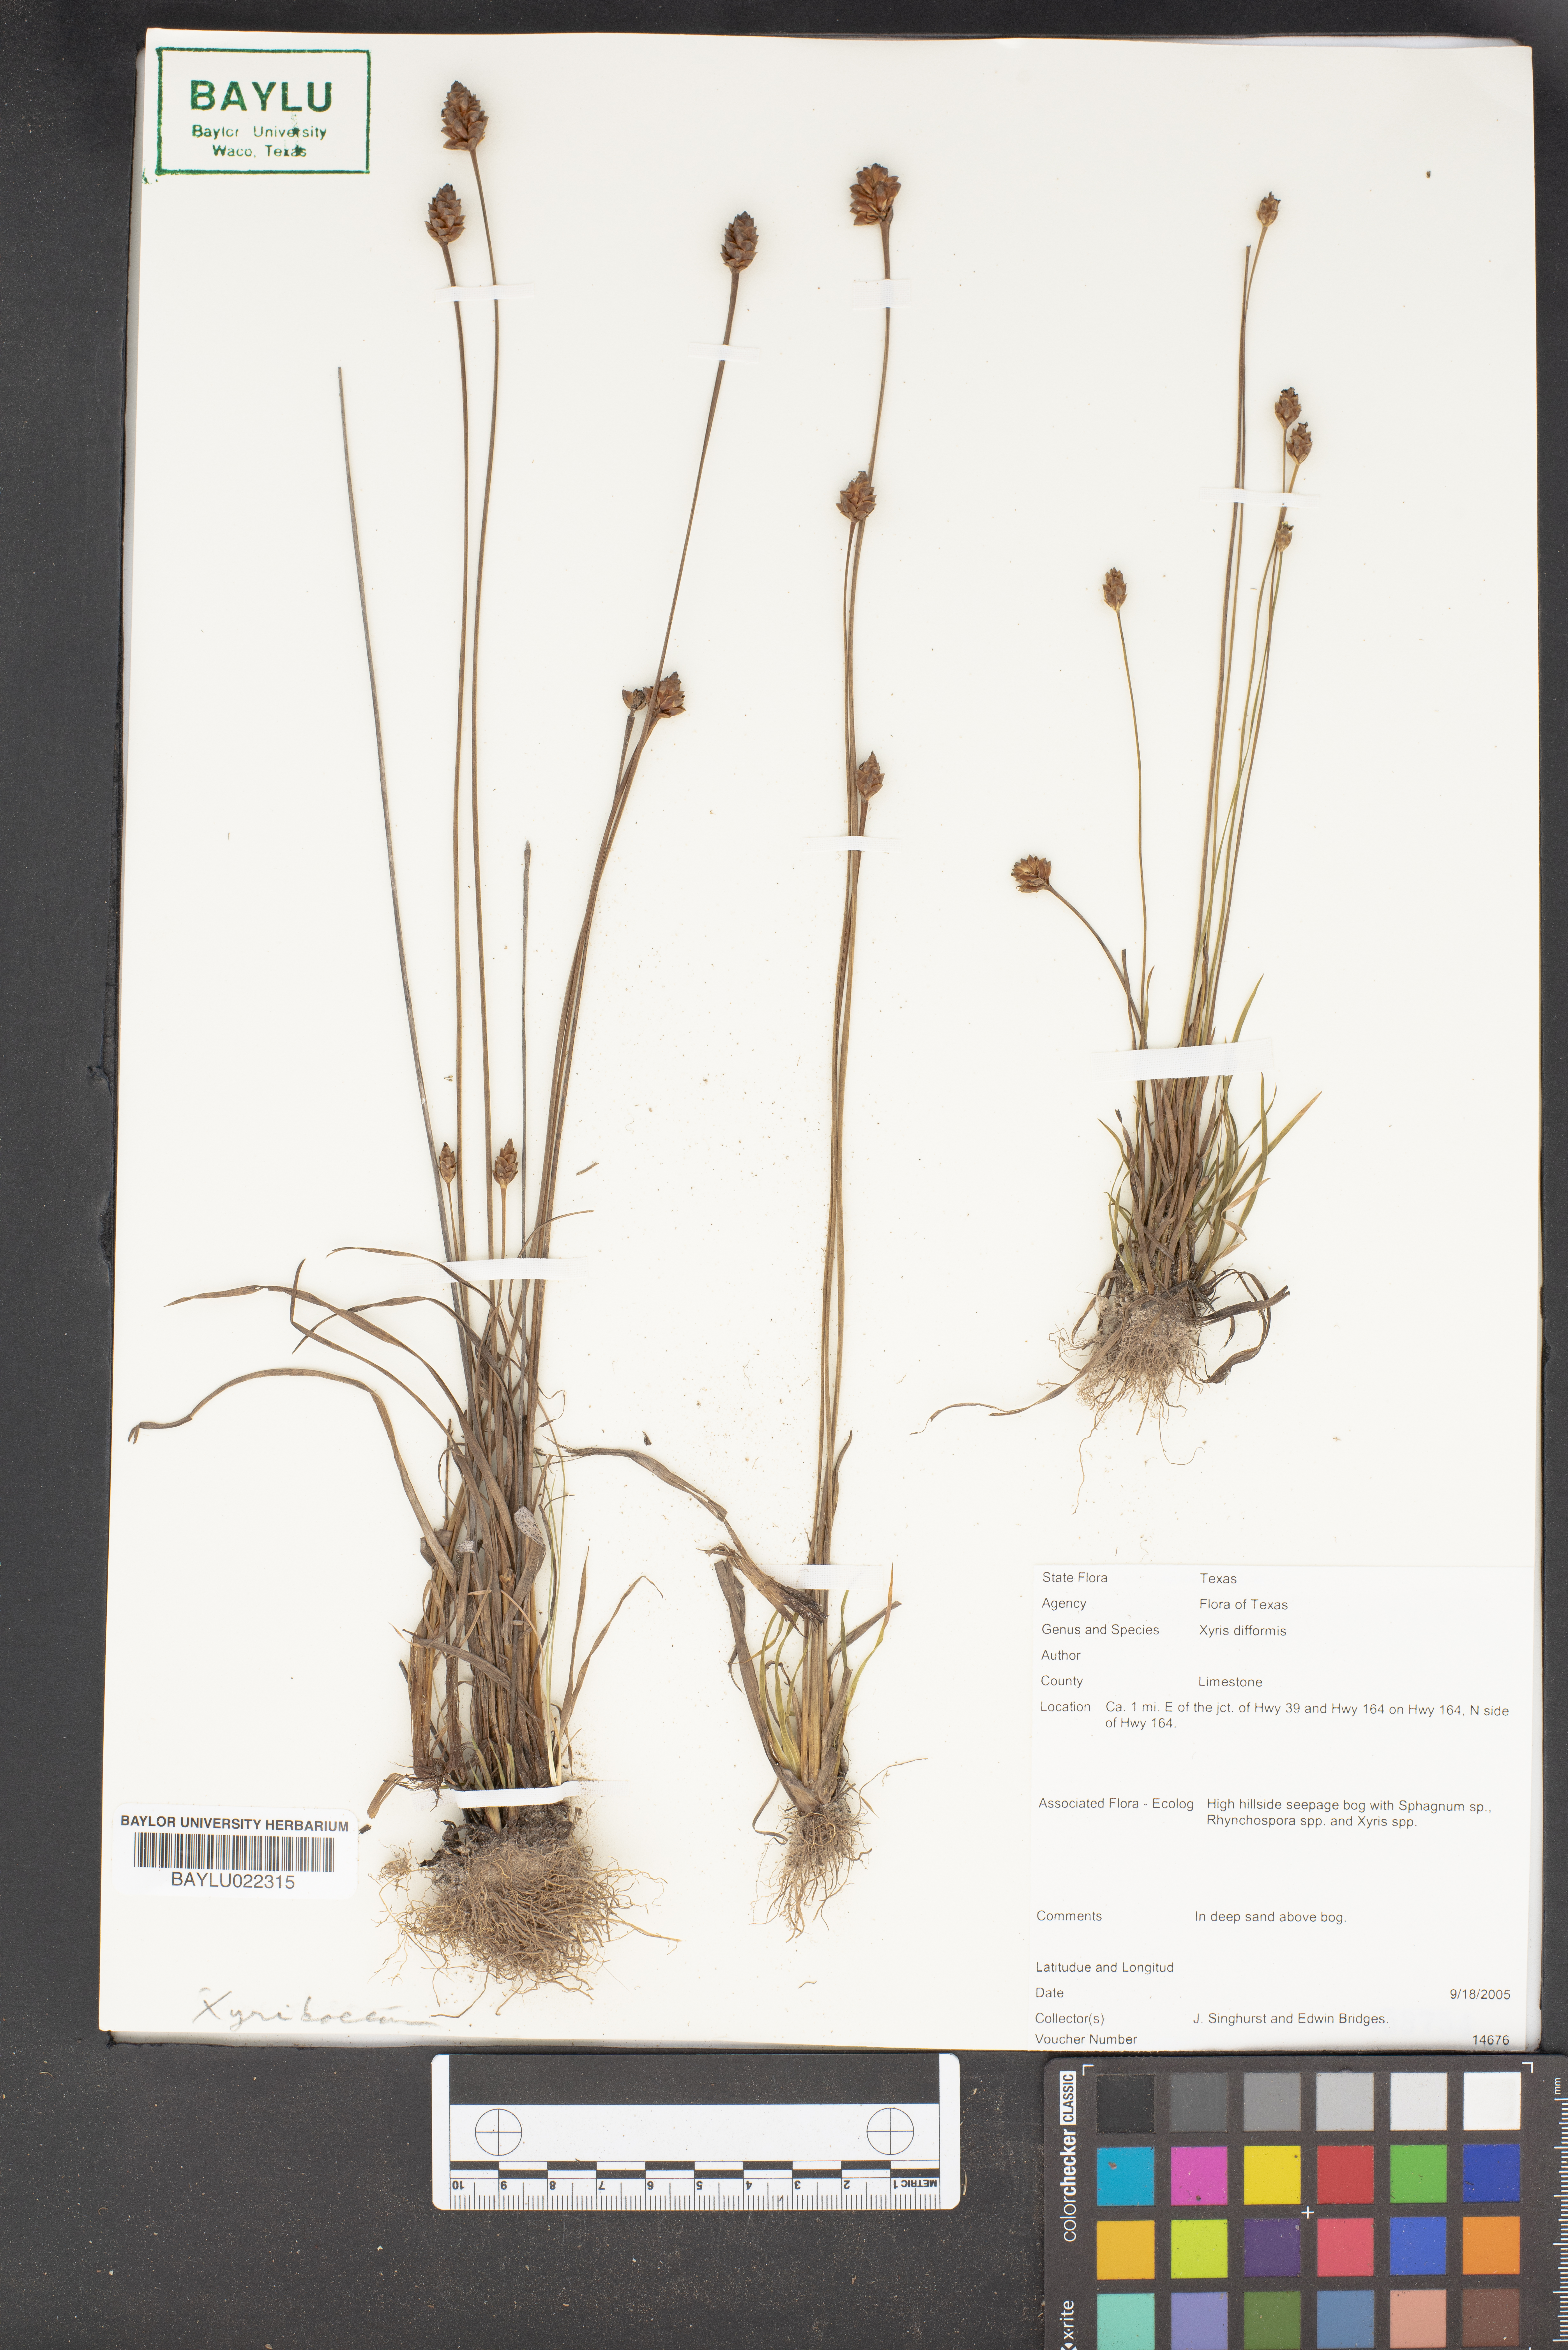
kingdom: Plantae
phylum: Tracheophyta
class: Liliopsida
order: Poales
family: Xyridaceae
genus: Xyris
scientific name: Xyris difformis
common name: Bog yellow-eyed-grass
